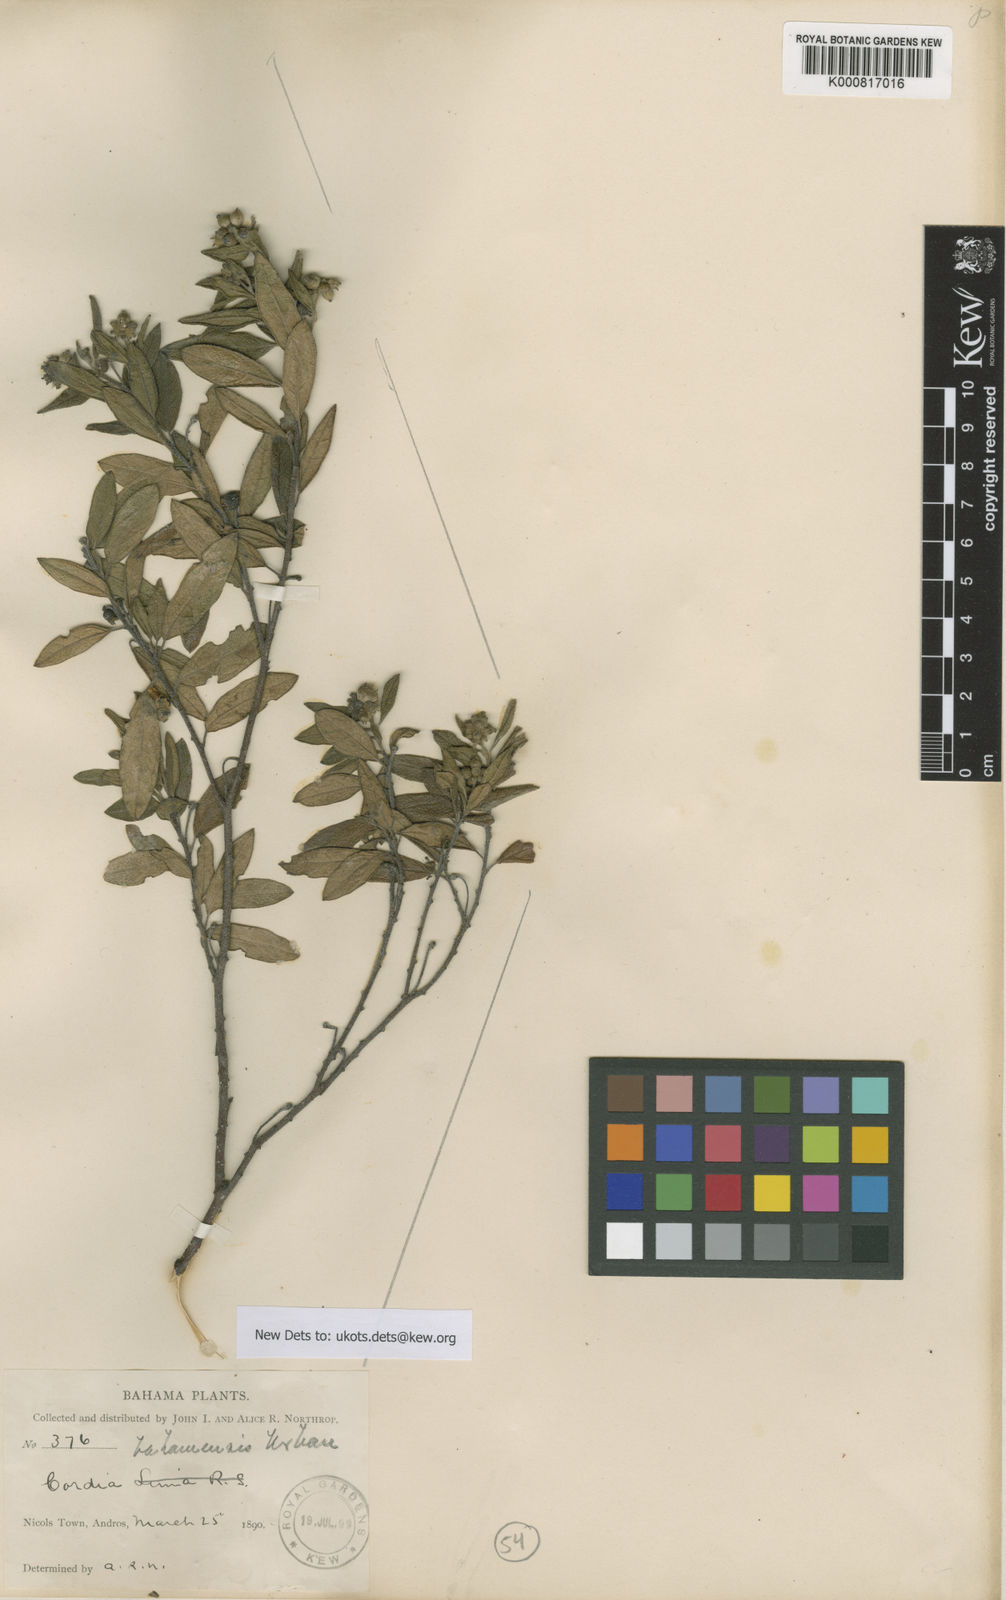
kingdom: Plantae
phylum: Tracheophyta
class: Magnoliopsida
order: Boraginales
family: Cordiaceae
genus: Varronia
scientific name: Varronia bahamensis
